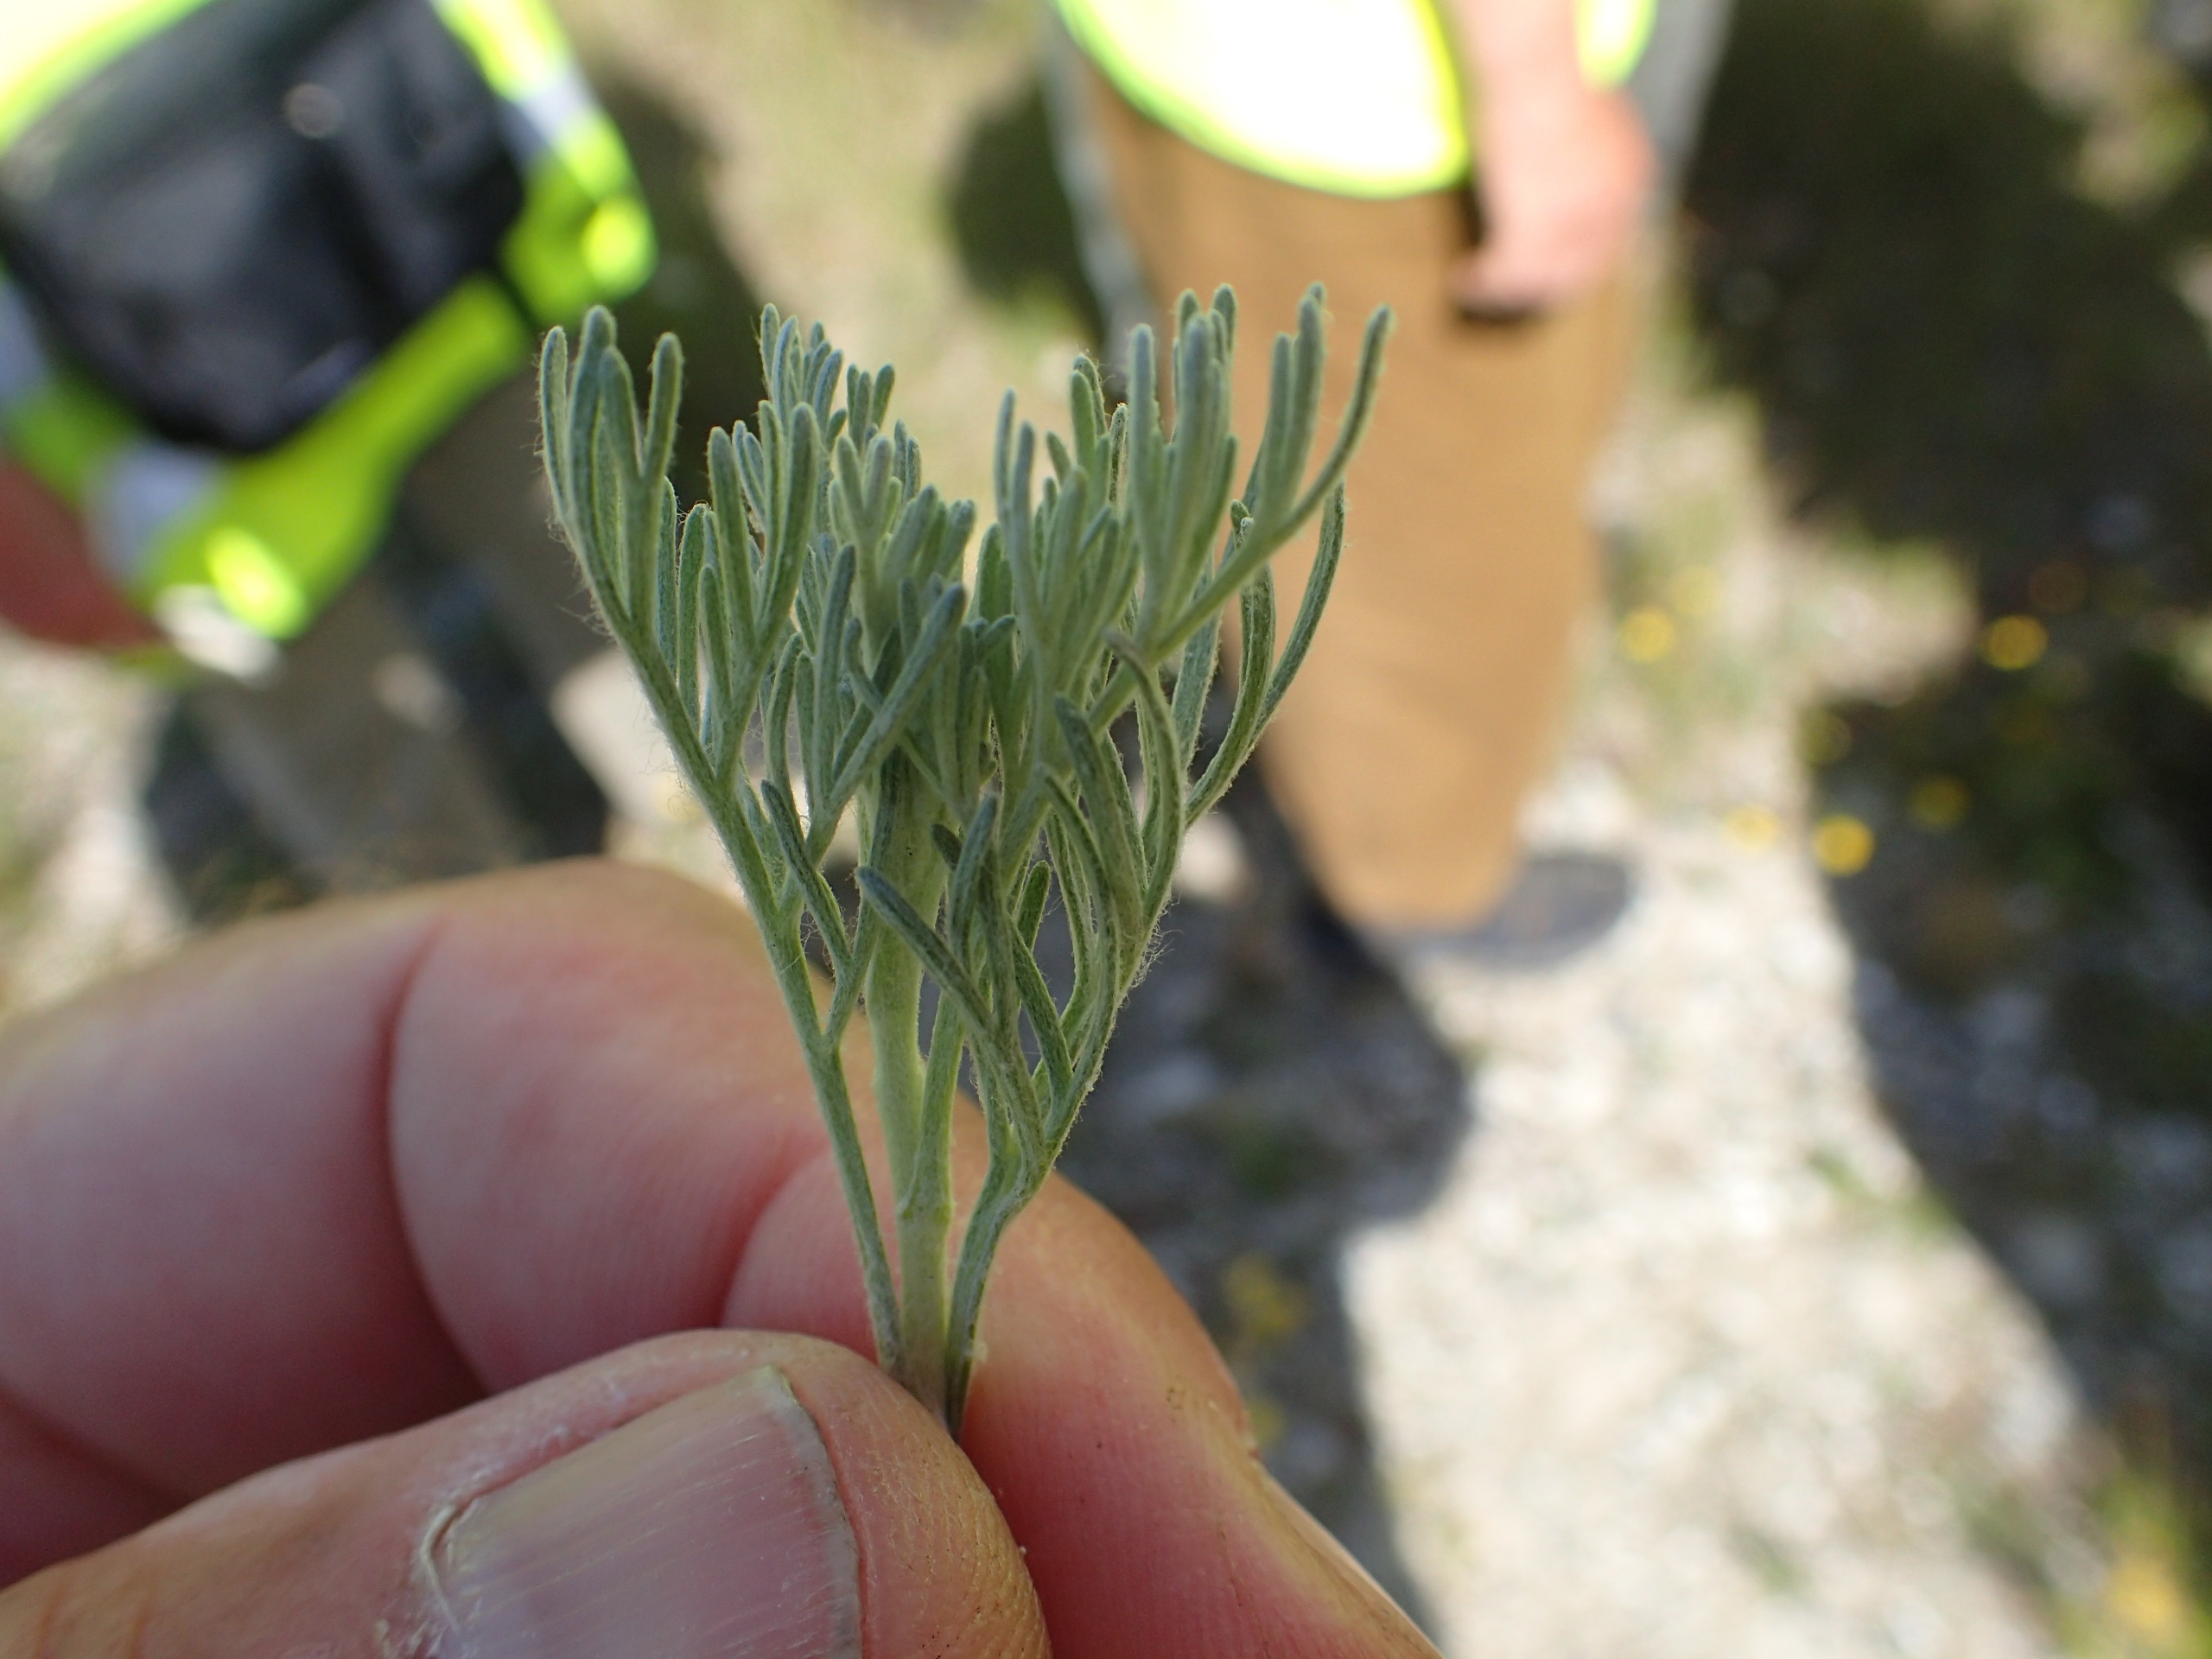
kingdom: Plantae
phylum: Tracheophyta
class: Magnoliopsida
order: Asterales
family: Asteraceae
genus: Artemisia
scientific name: Artemisia maritima
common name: Strandmalurt
